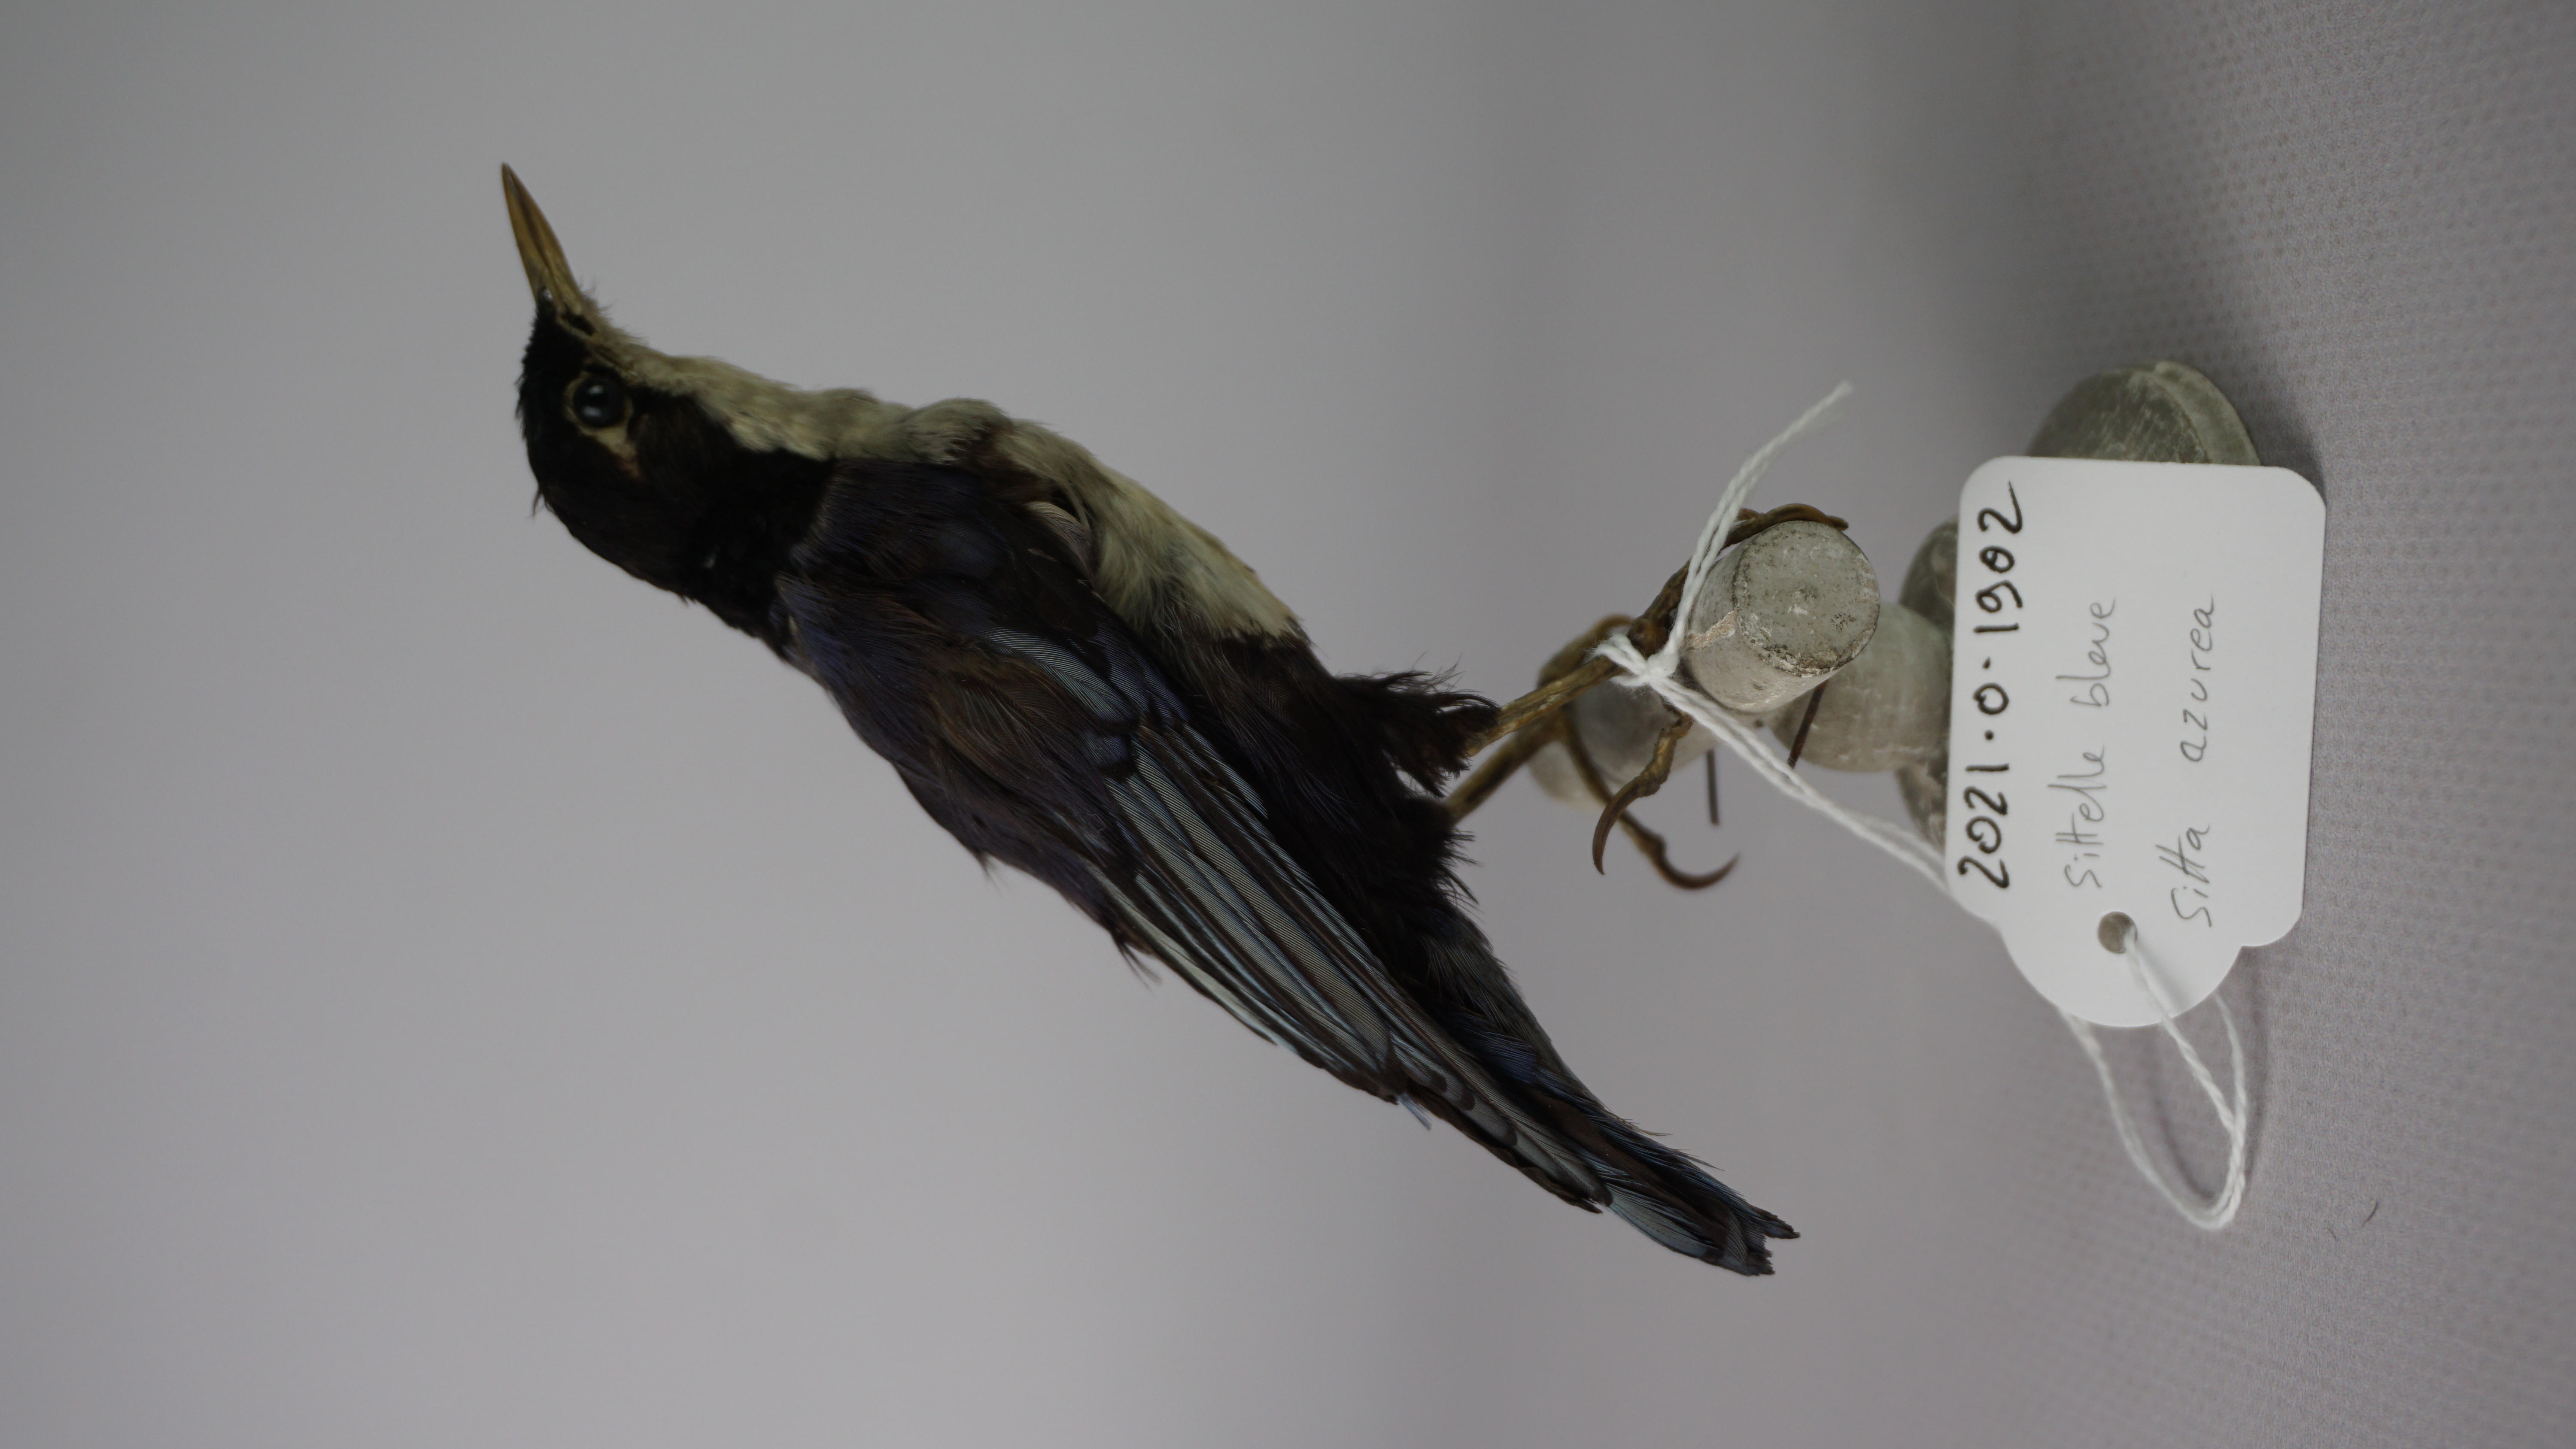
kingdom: Animalia
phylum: Chordata
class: Aves
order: Passeriformes
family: Sittidae
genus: Sitta
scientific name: Sitta azurea
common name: Blue nuthatch
